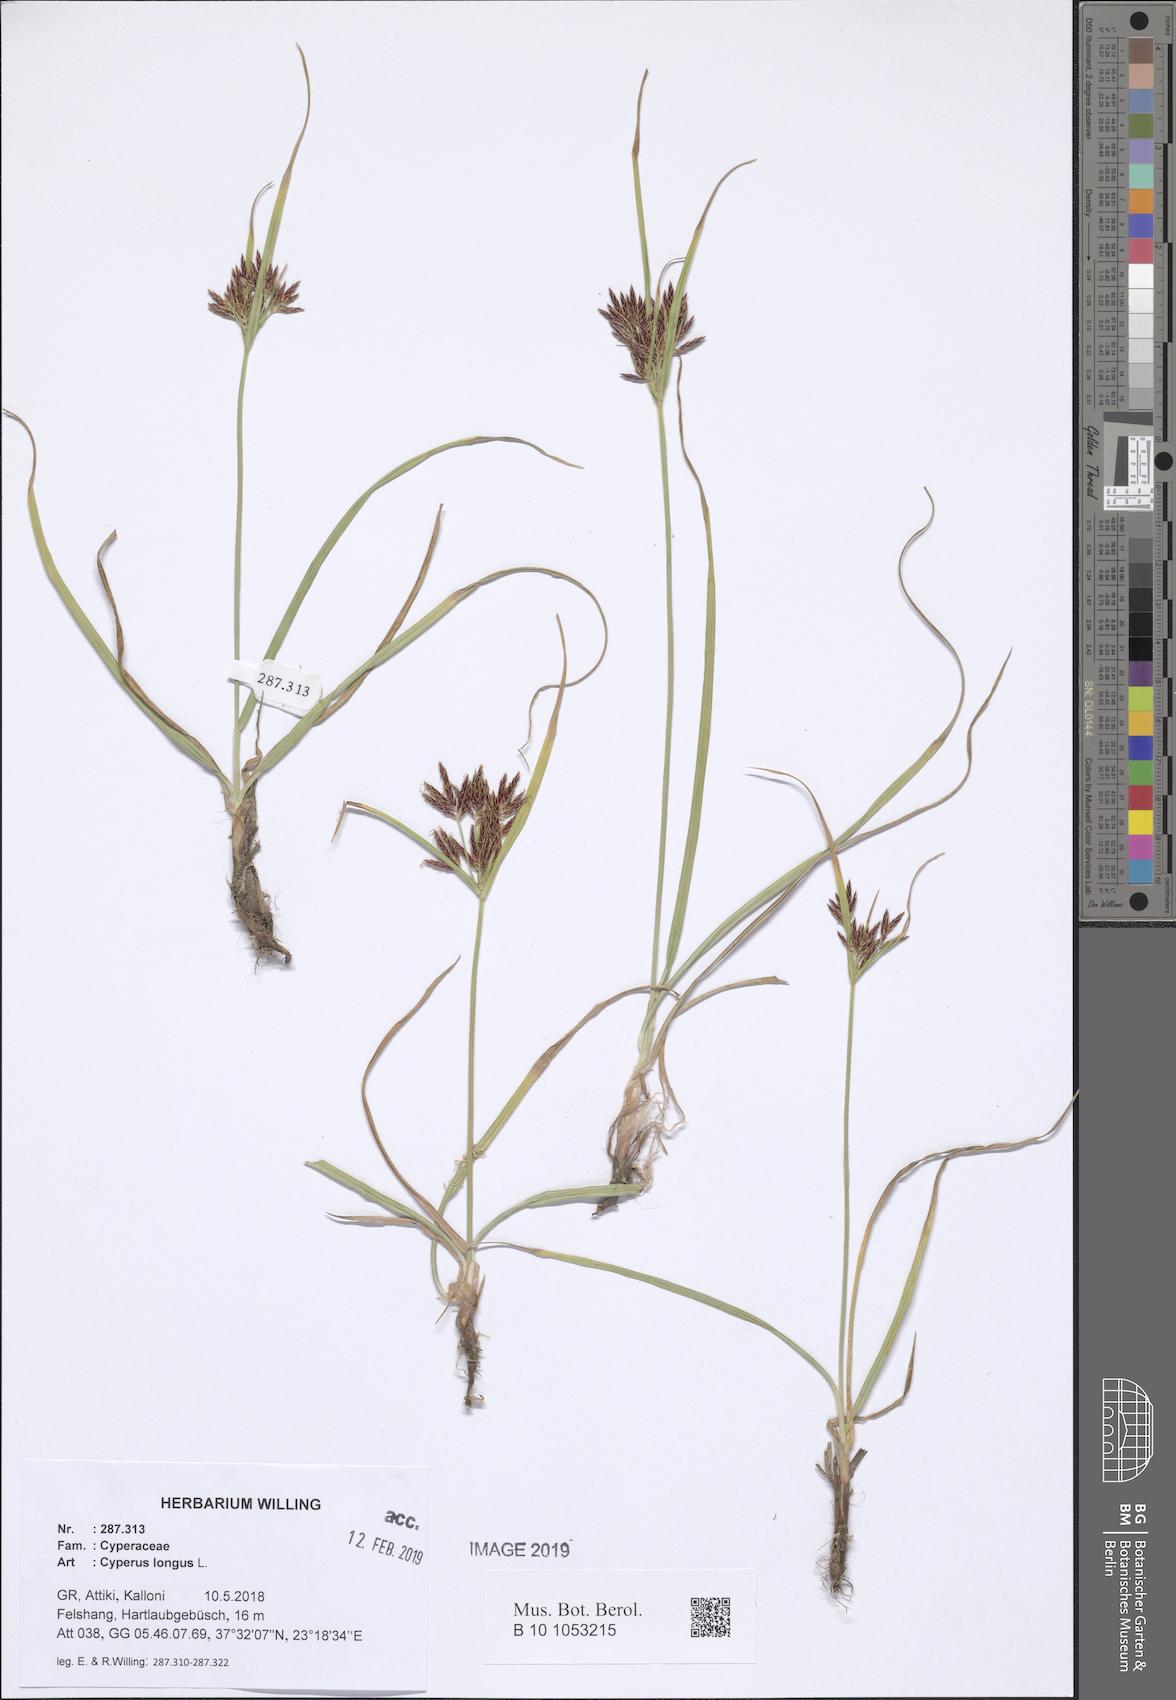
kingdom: Plantae
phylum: Tracheophyta
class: Liliopsida
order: Poales
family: Cyperaceae
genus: Cyperus
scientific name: Cyperus longus
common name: Galingale
